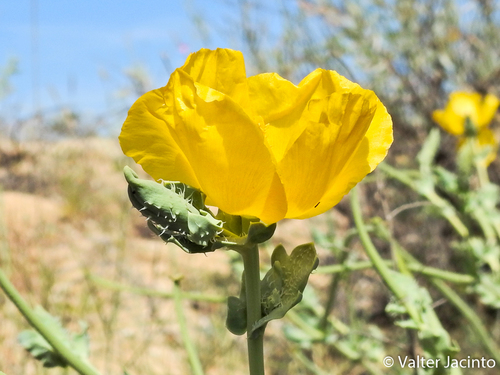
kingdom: Plantae
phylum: Tracheophyta
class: Magnoliopsida
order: Ranunculales
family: Papaveraceae
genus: Glaucium
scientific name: Glaucium flavum
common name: Yellow horned-poppy
